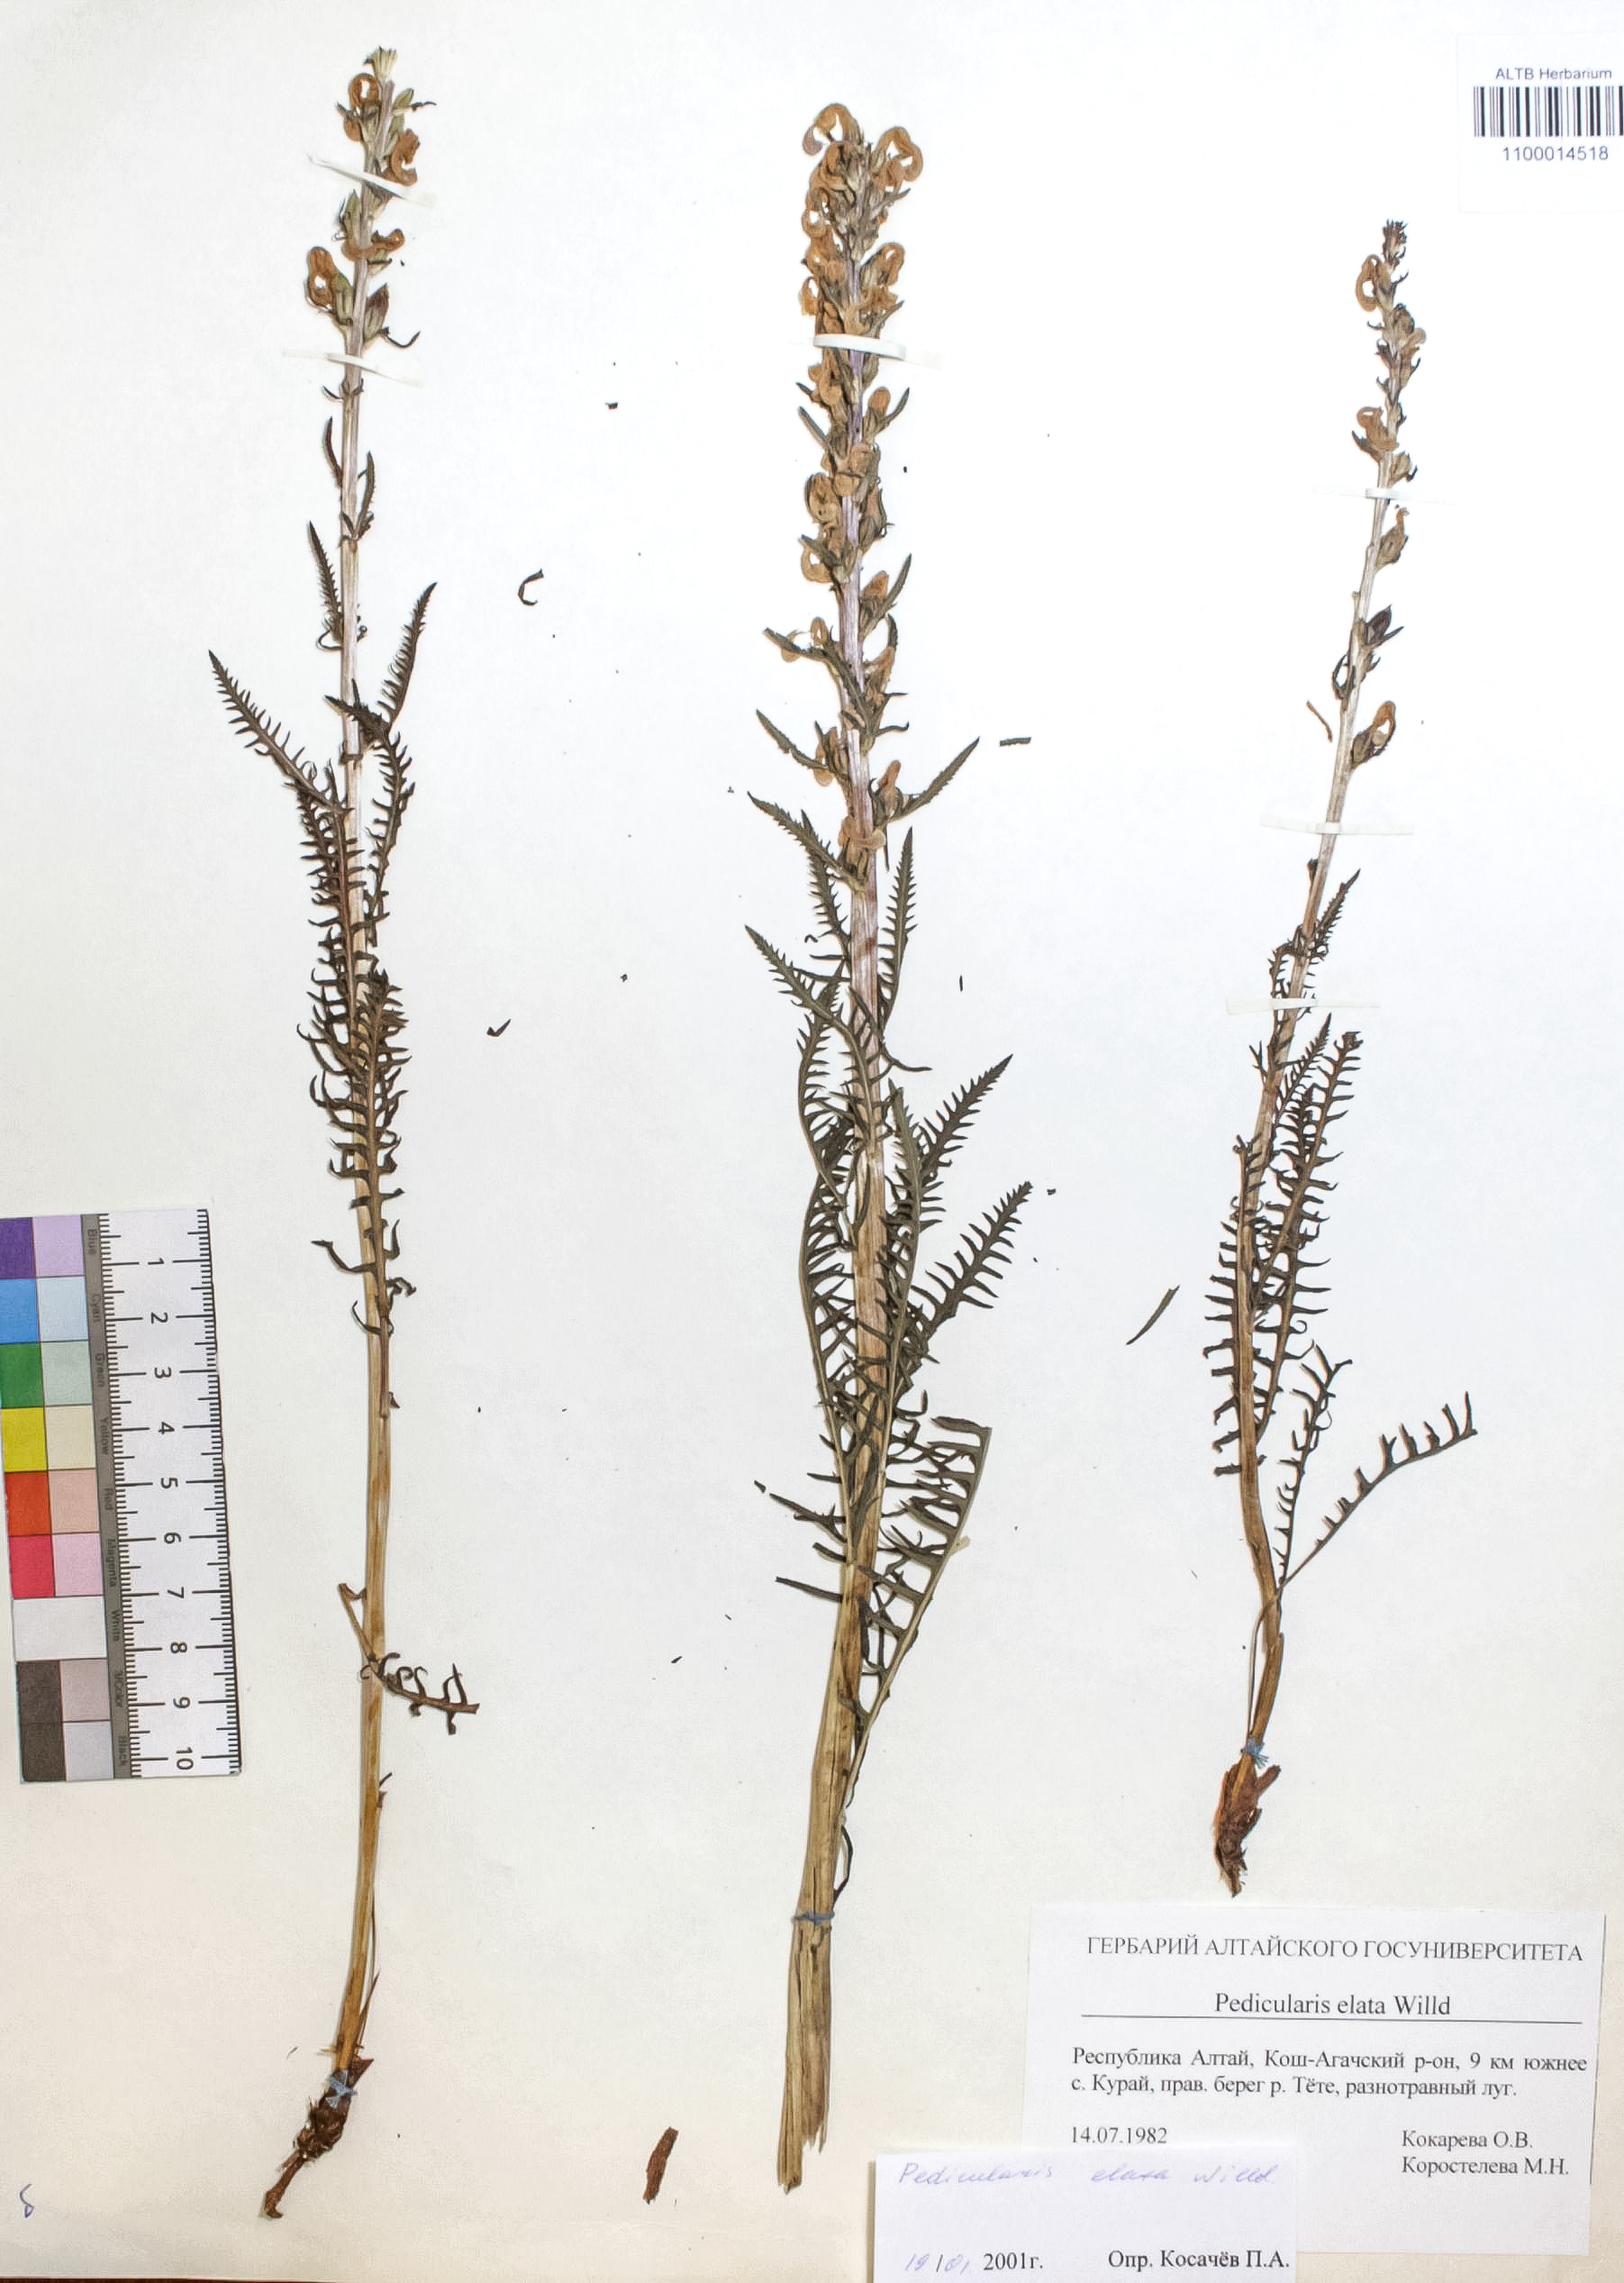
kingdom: Plantae
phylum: Tracheophyta
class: Magnoliopsida
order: Lamiales
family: Orobanchaceae
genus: Pedicularis
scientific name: Pedicularis elata
